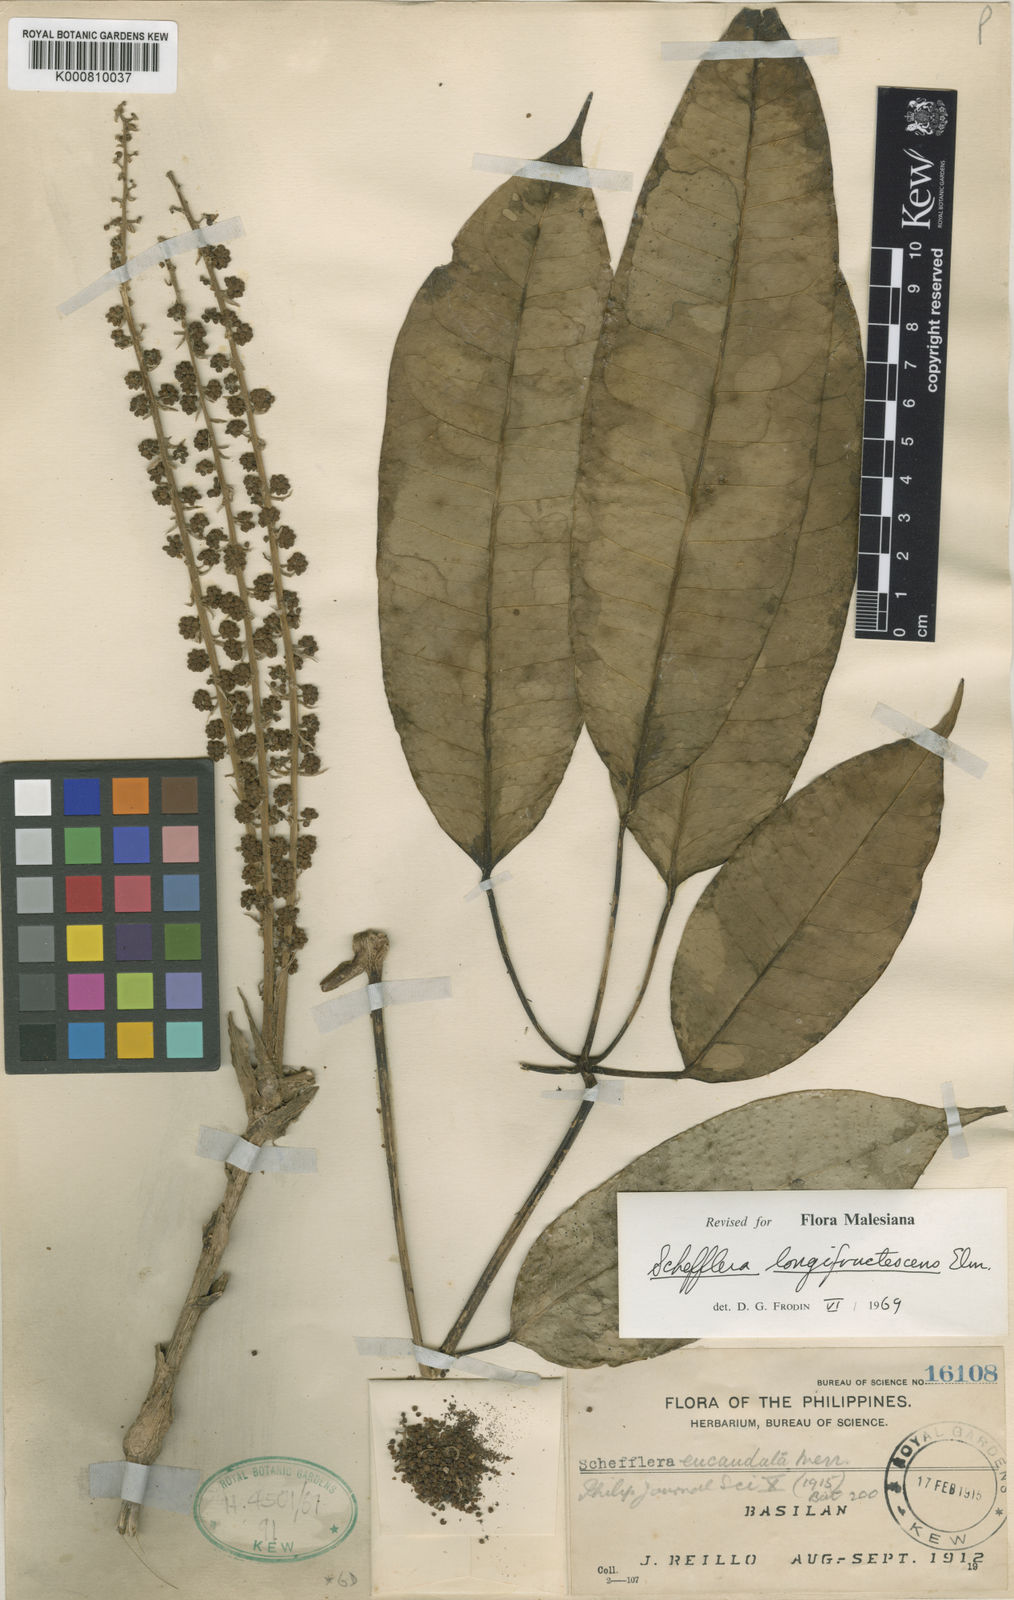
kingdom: Plantae
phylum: Tracheophyta
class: Magnoliopsida
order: Apiales
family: Araliaceae
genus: Heptapleurum
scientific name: Heptapleurum eucaudatum
